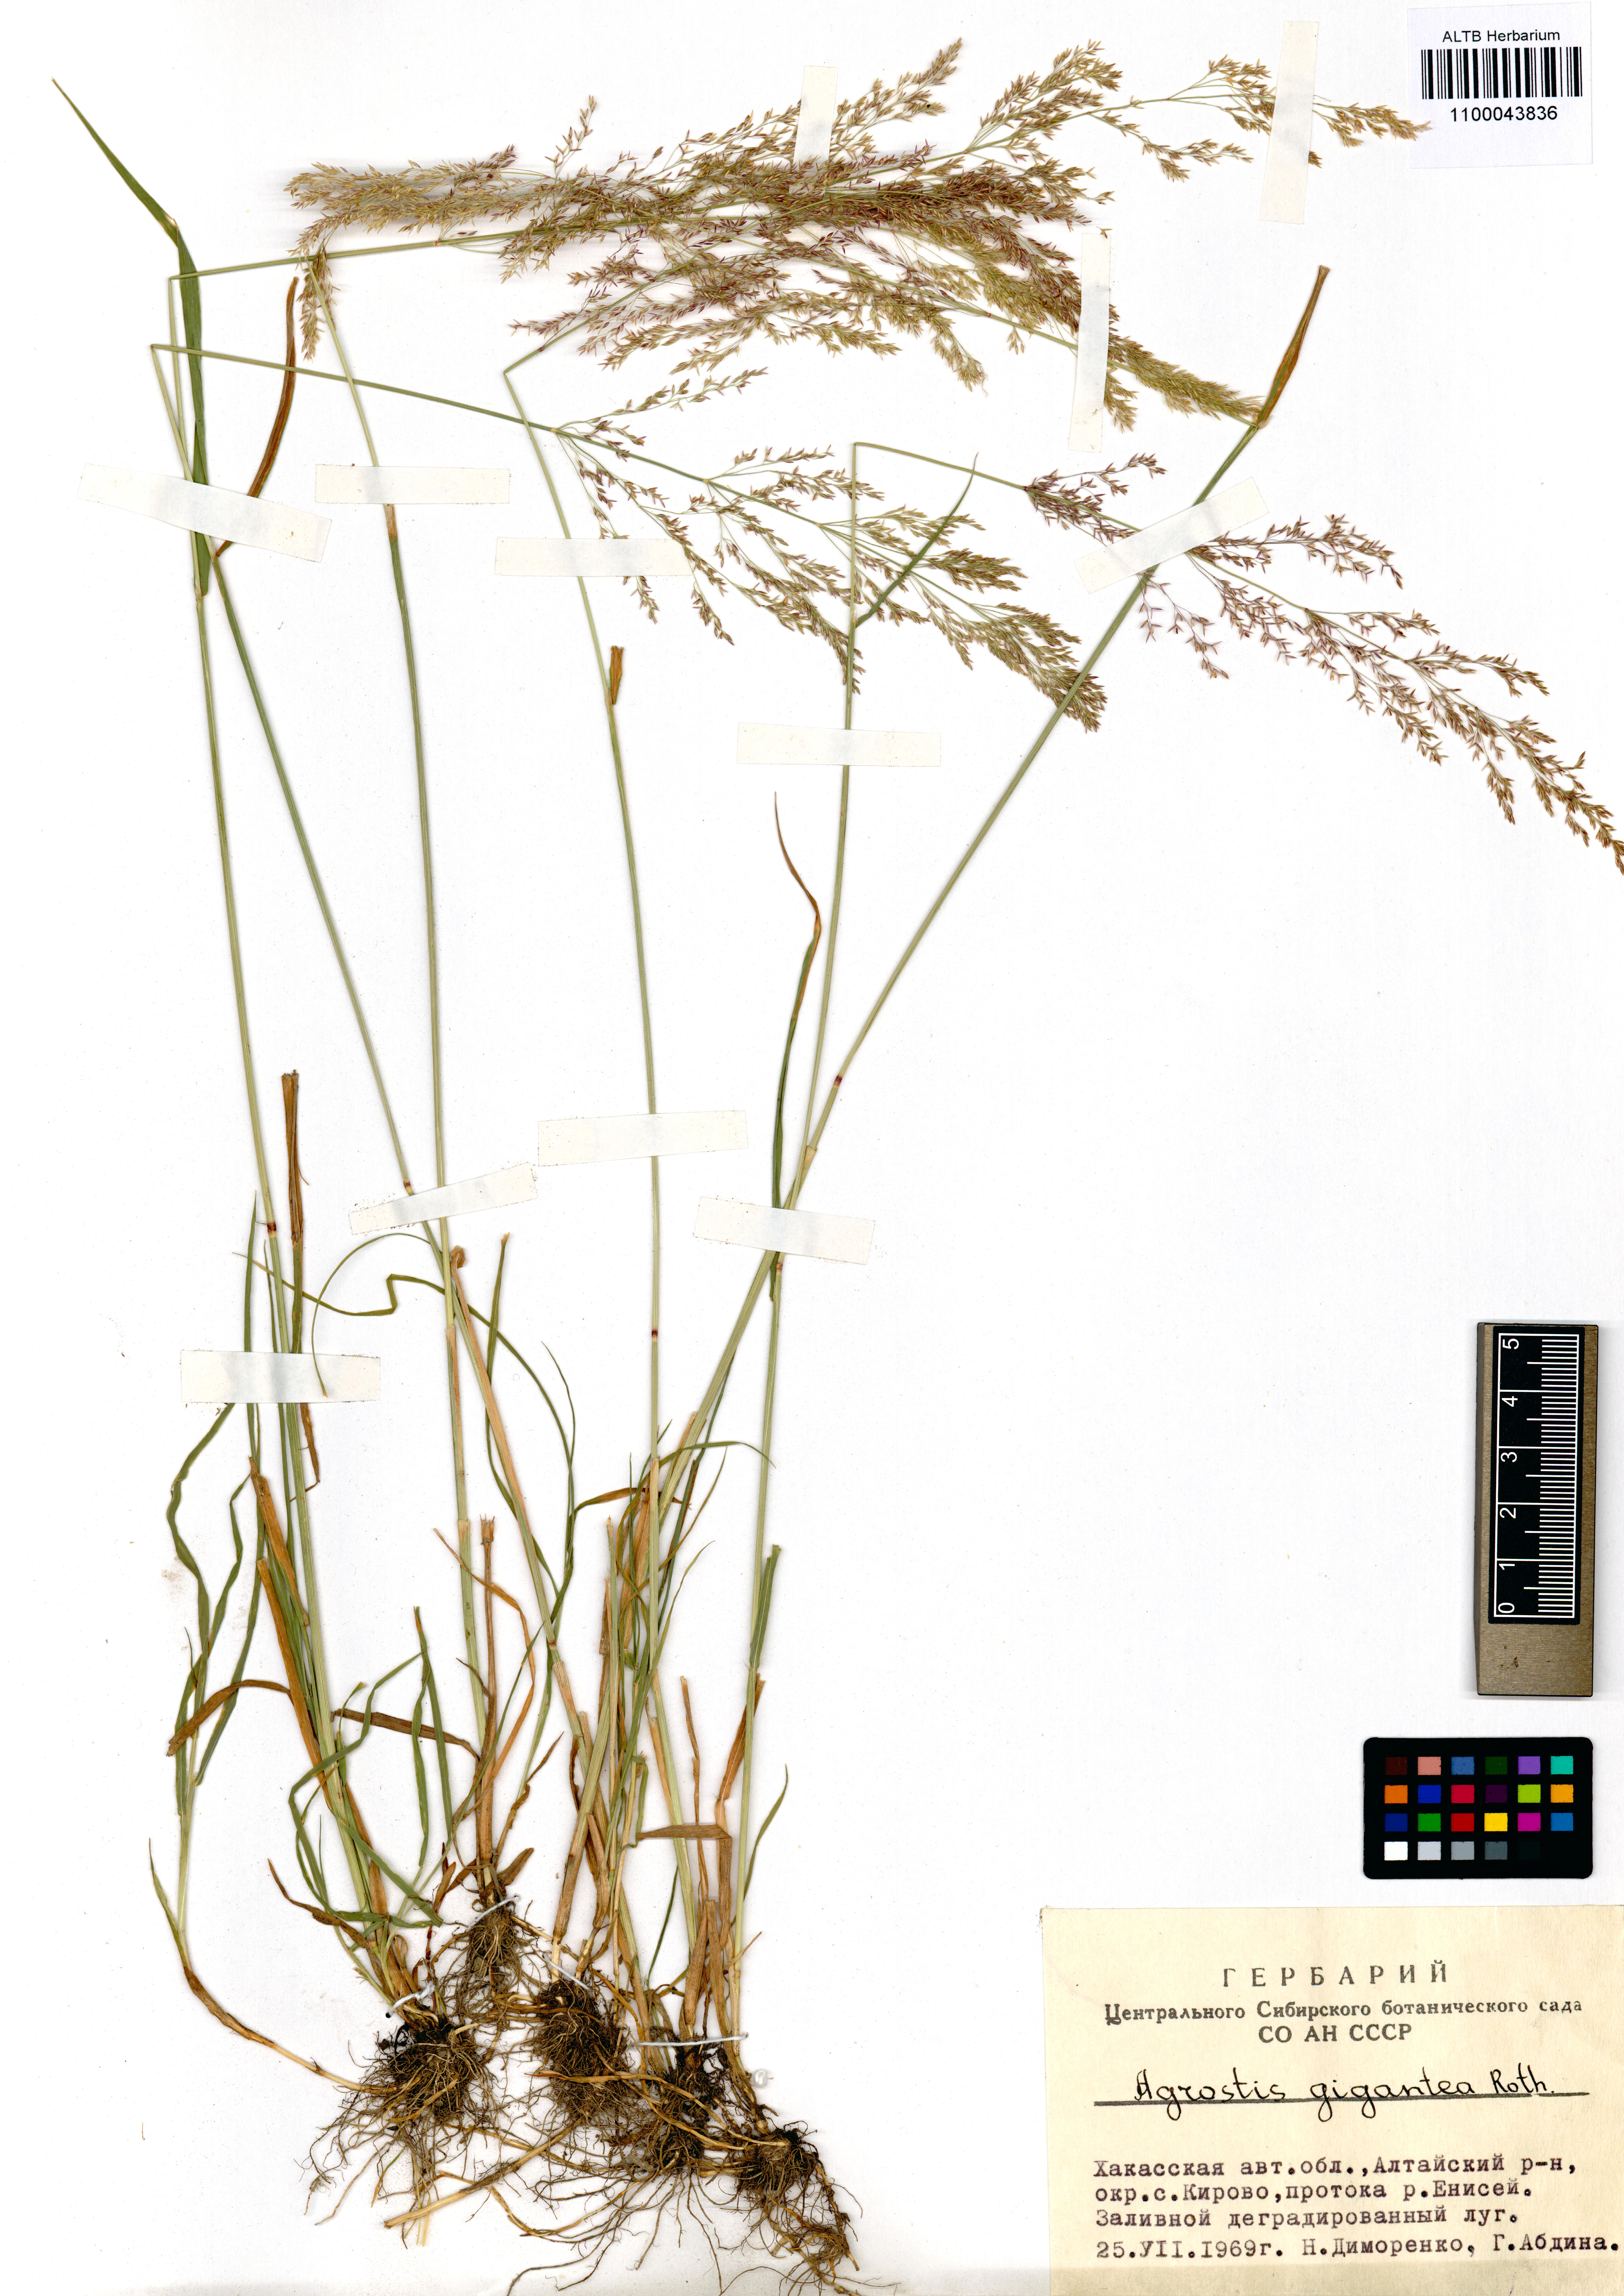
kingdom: Plantae
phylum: Tracheophyta
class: Liliopsida
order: Poales
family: Poaceae
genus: Agrostis
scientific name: Agrostis gigantea
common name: Black bent
